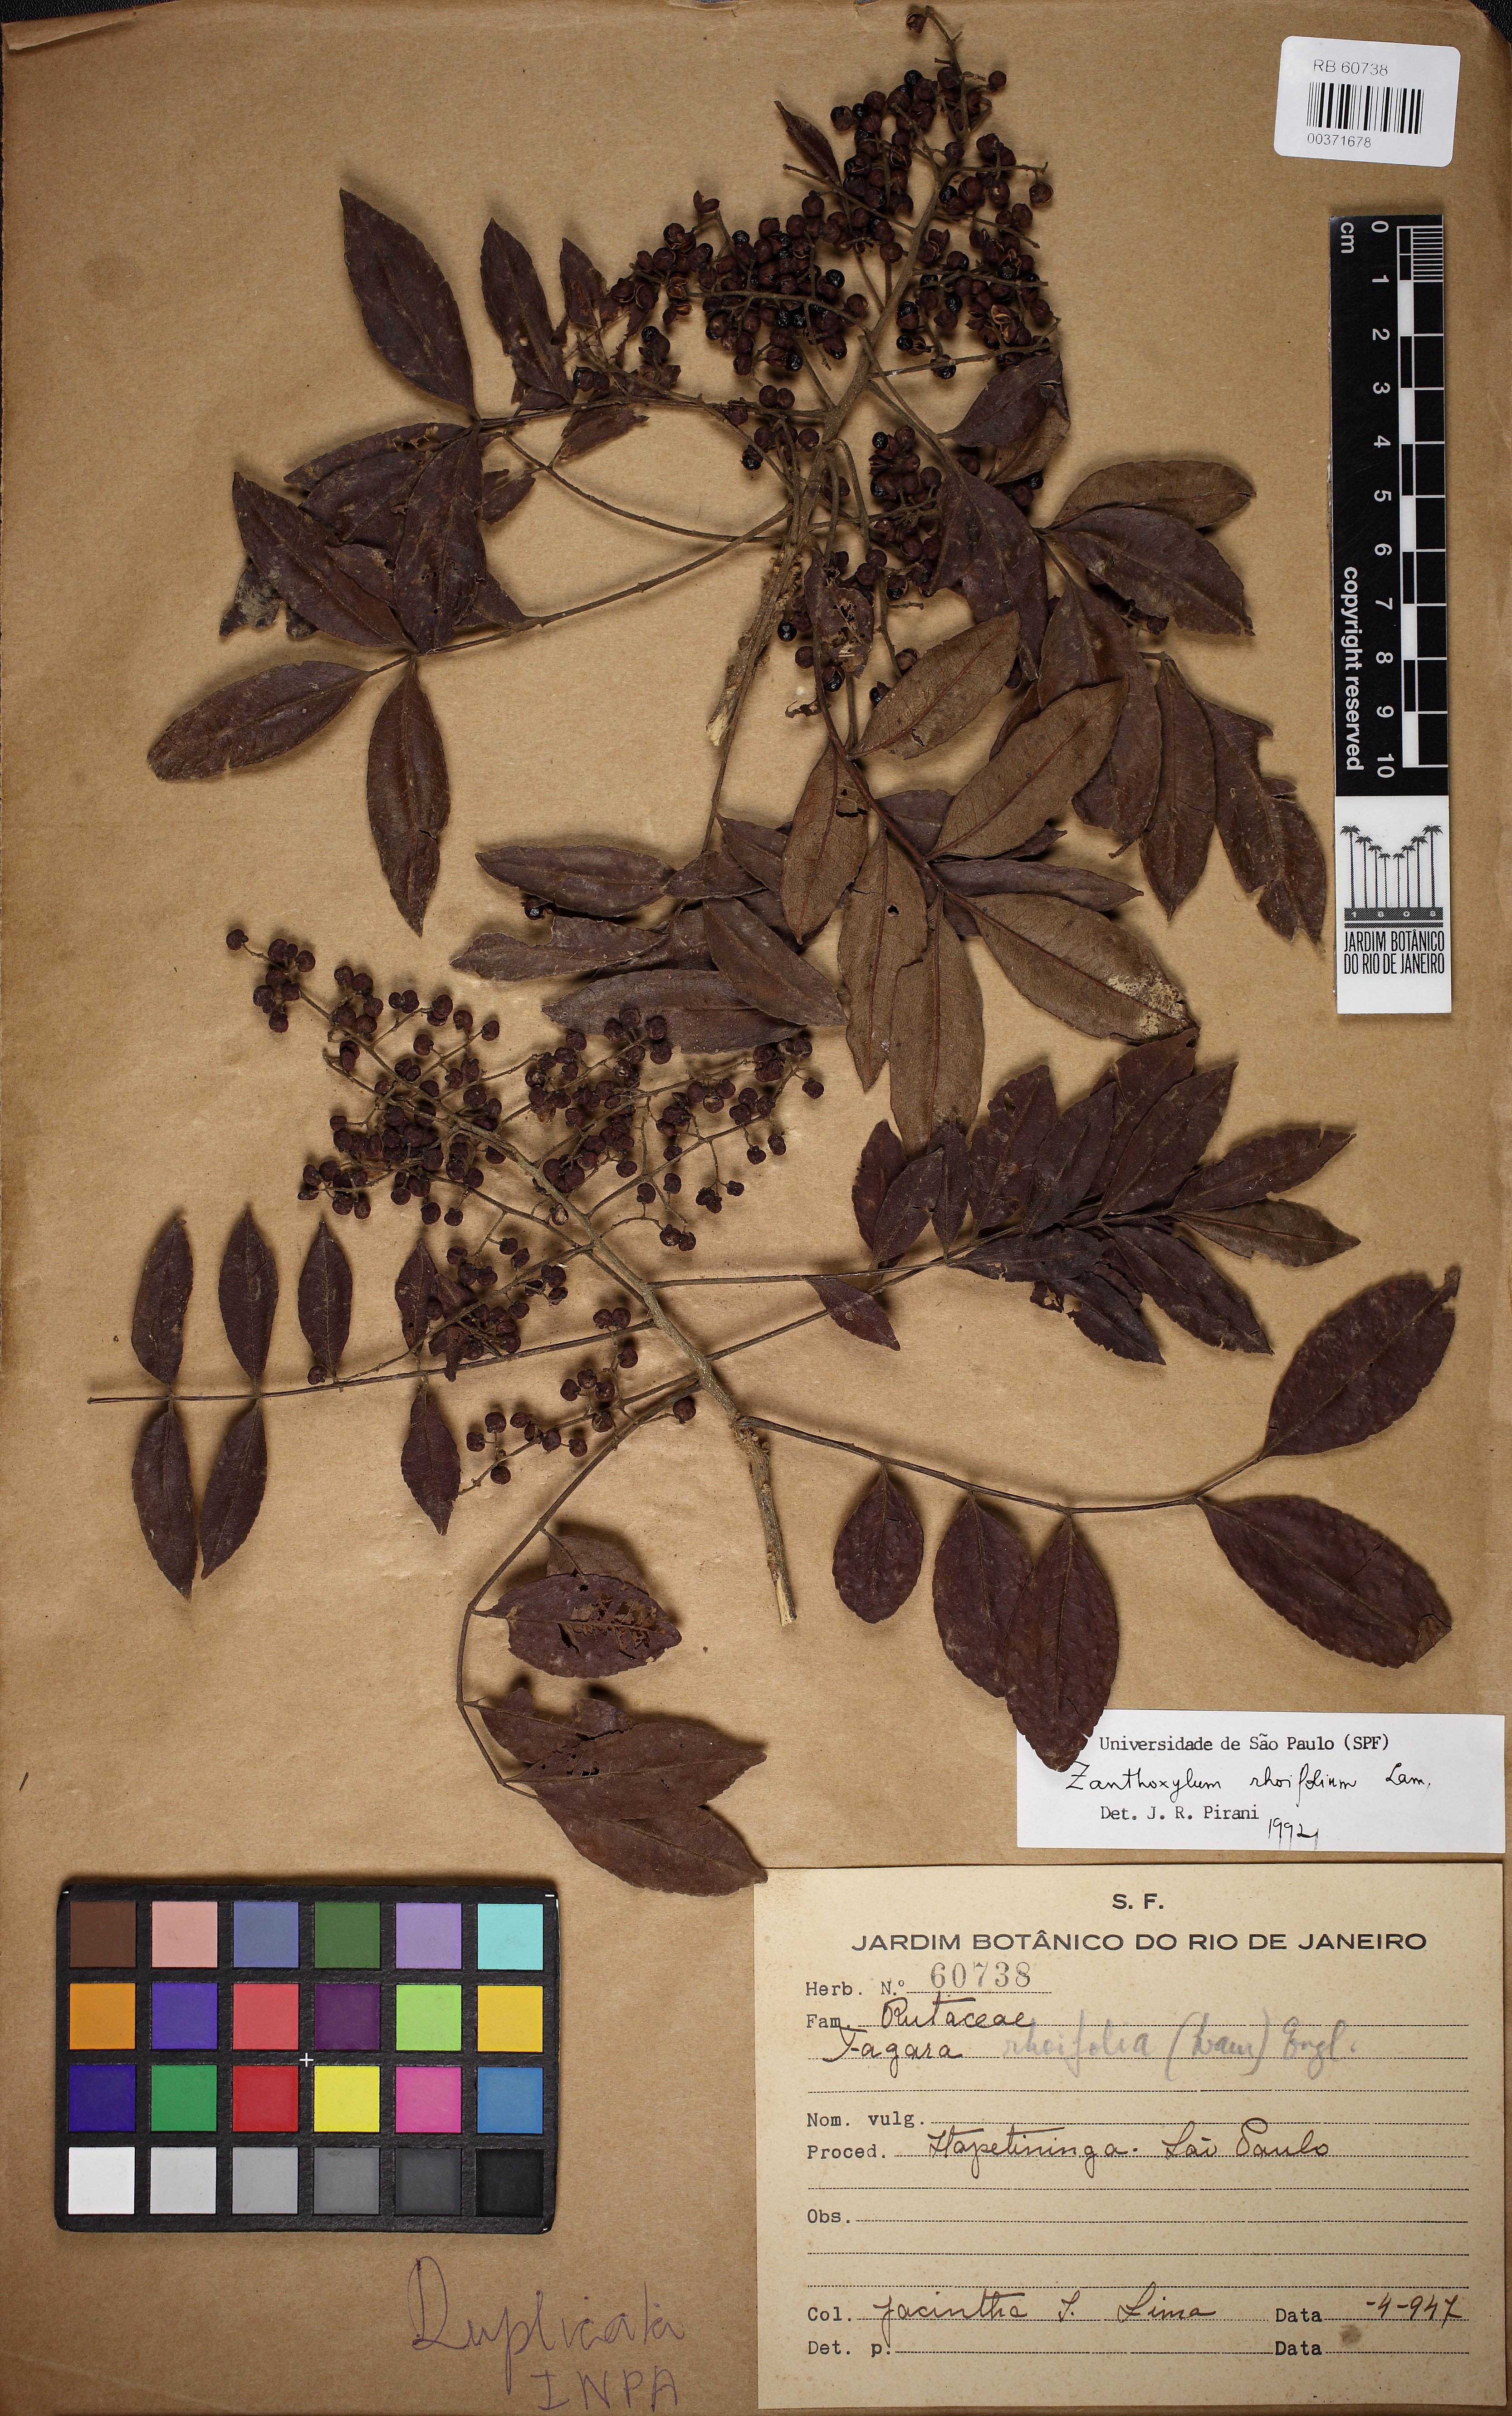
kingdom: Plantae
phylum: Tracheophyta
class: Magnoliopsida
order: Sapindales
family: Rutaceae
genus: Zanthoxylum
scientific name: Zanthoxylum rhoifolium
